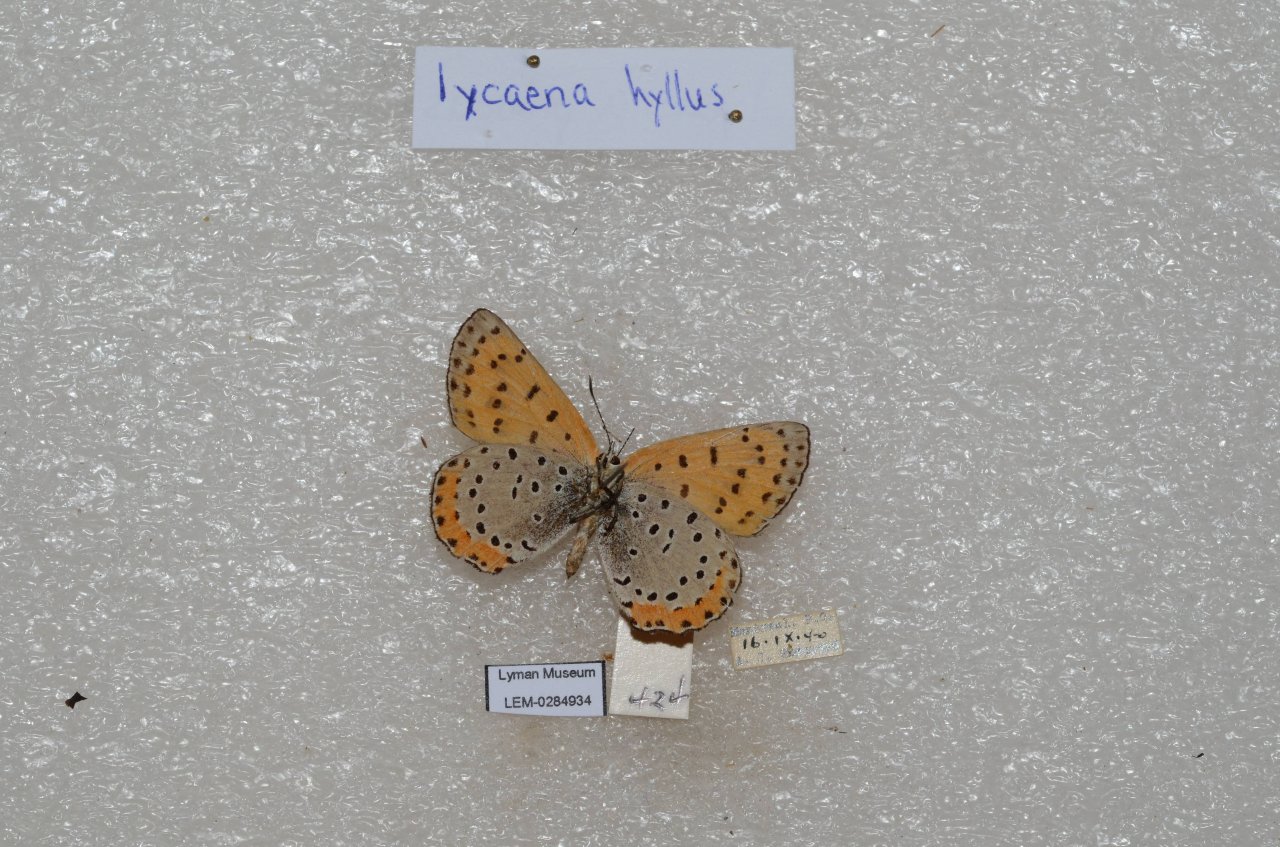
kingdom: Animalia
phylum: Arthropoda
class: Insecta
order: Lepidoptera
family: Sesiidae
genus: Sesia
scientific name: Sesia Lycaena hyllus
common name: Bronze Copper
